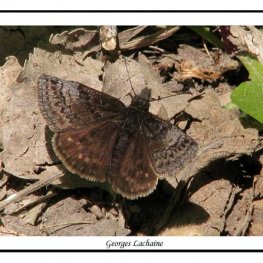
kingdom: Animalia
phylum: Arthropoda
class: Insecta
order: Lepidoptera
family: Hesperiidae
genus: Erynnis
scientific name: Erynnis icelus
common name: Dreamy Duskywing
